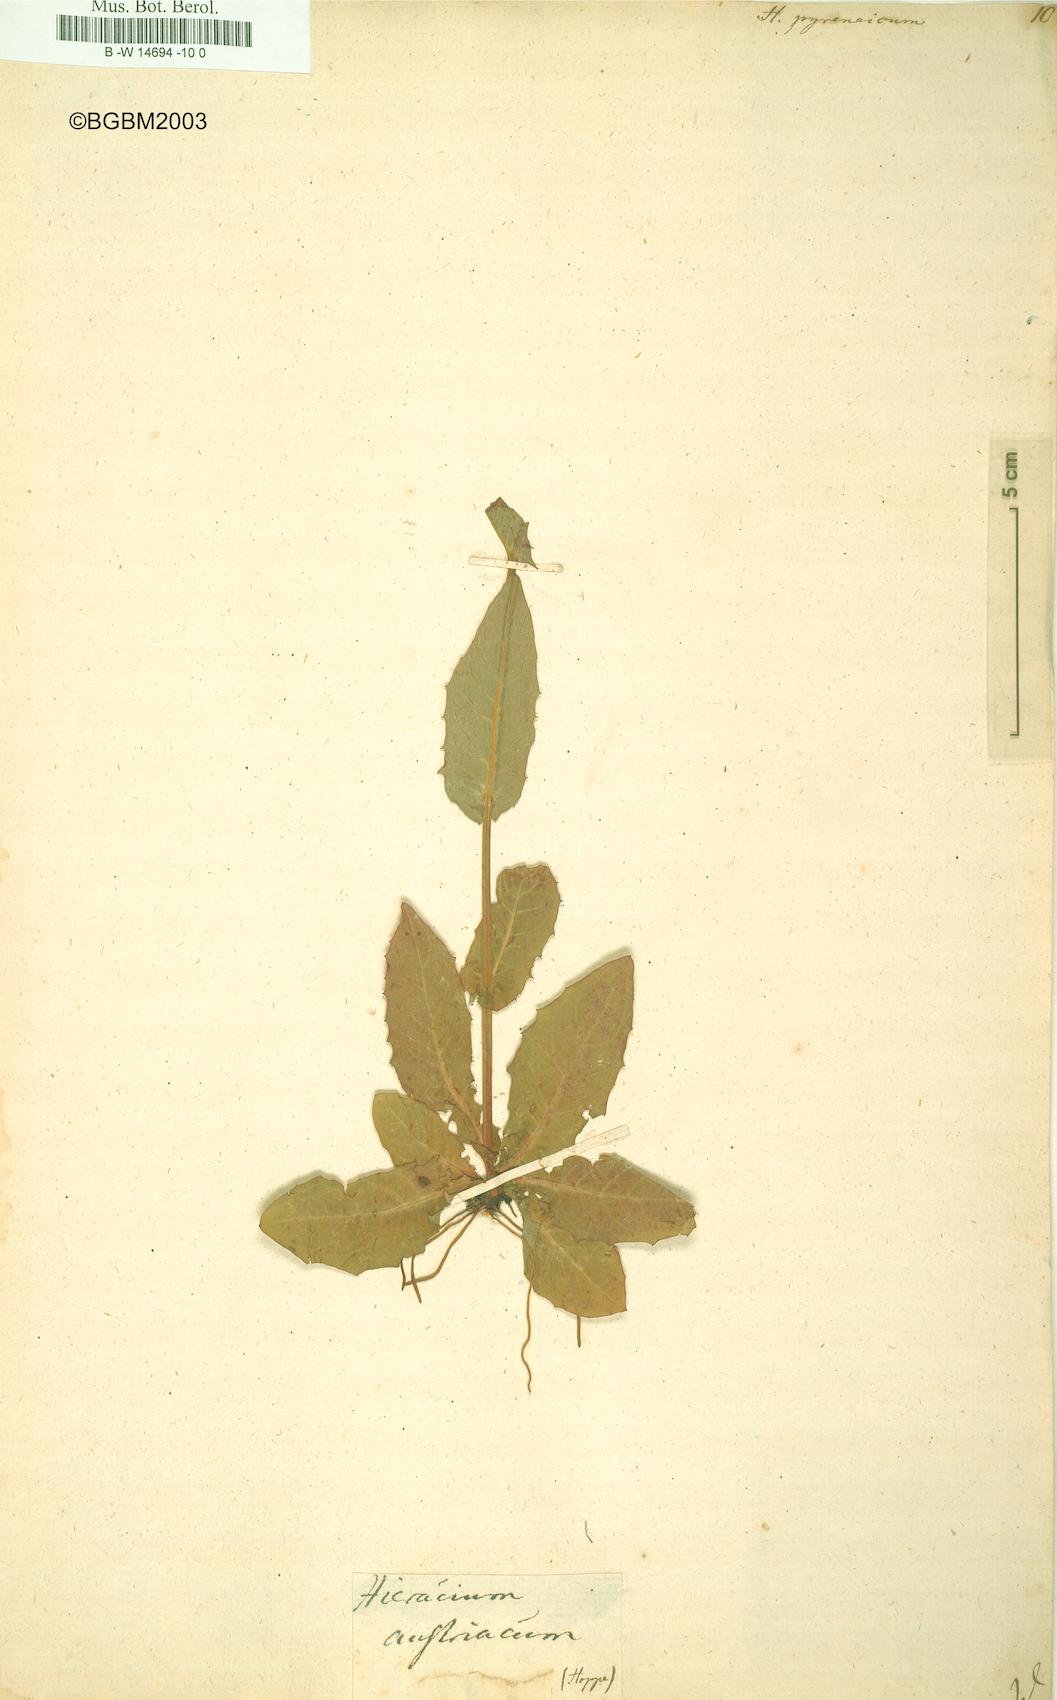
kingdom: Plantae
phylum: Tracheophyta
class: Magnoliopsida
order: Asterales
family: Asteraceae
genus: Hieracium
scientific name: Hieracium pyrenaicum
